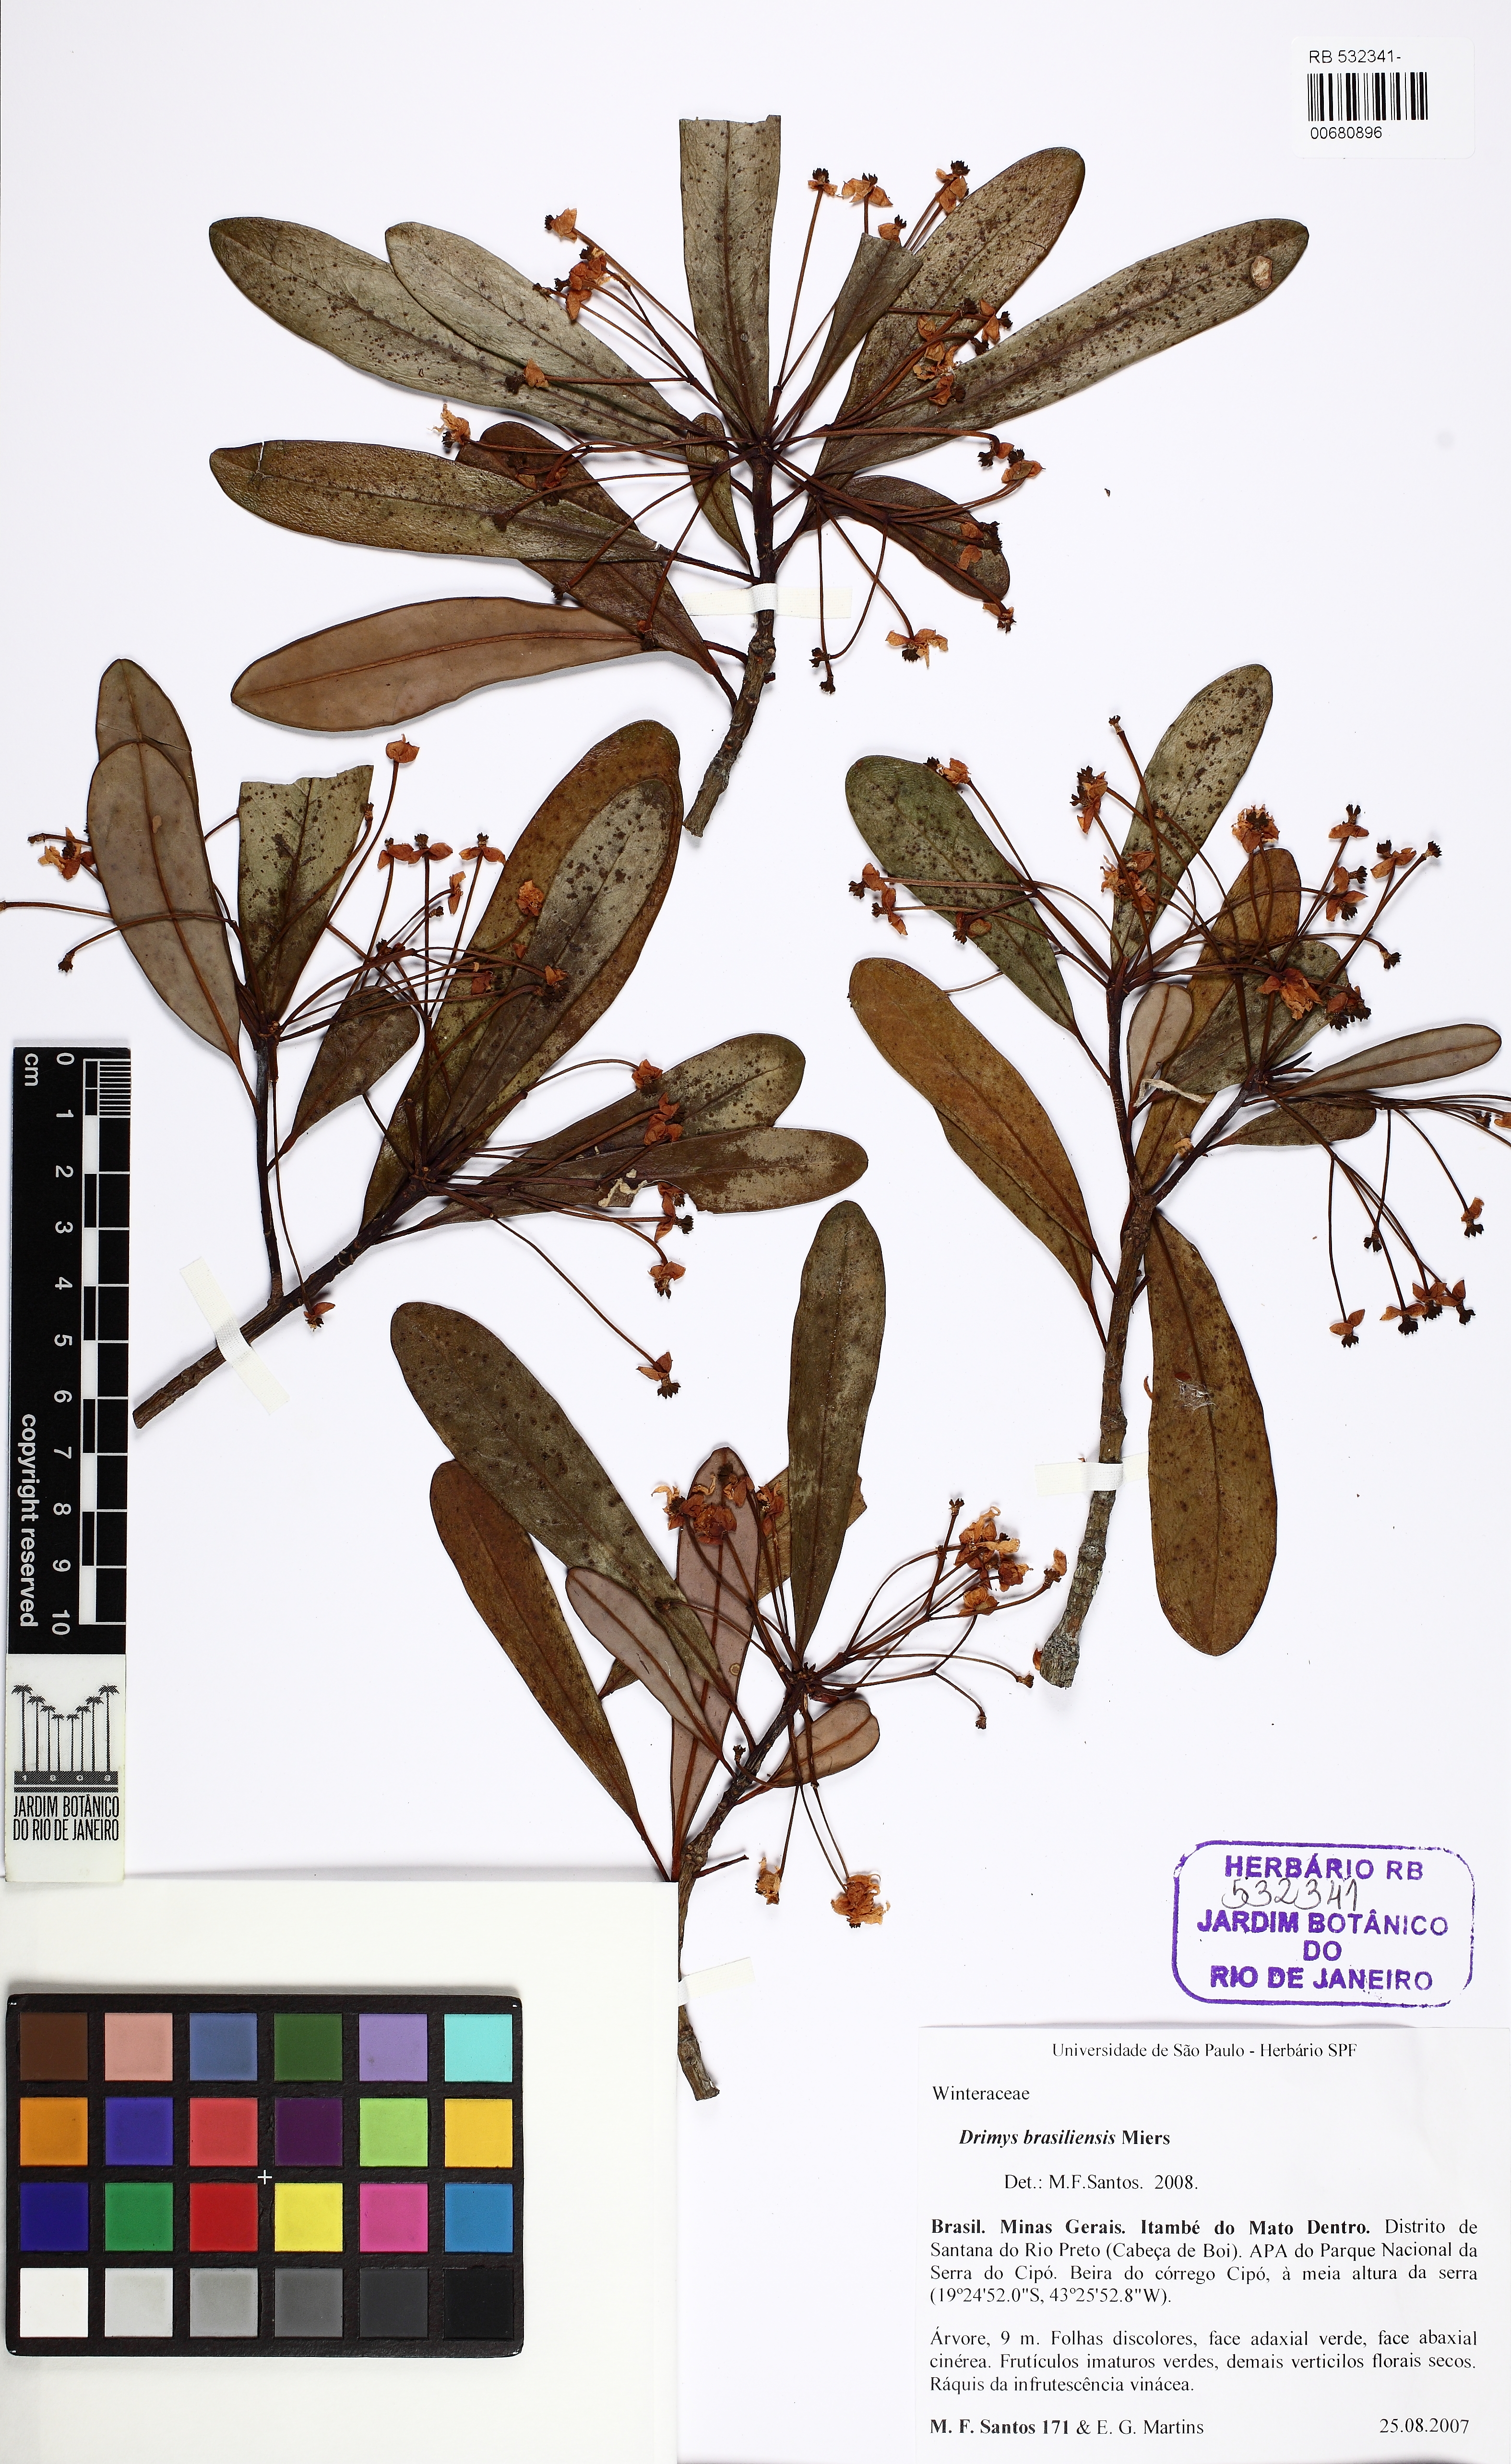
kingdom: Plantae
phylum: Tracheophyta
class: Magnoliopsida
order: Canellales
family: Winteraceae
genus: Drimys
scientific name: Drimys brasiliensis
